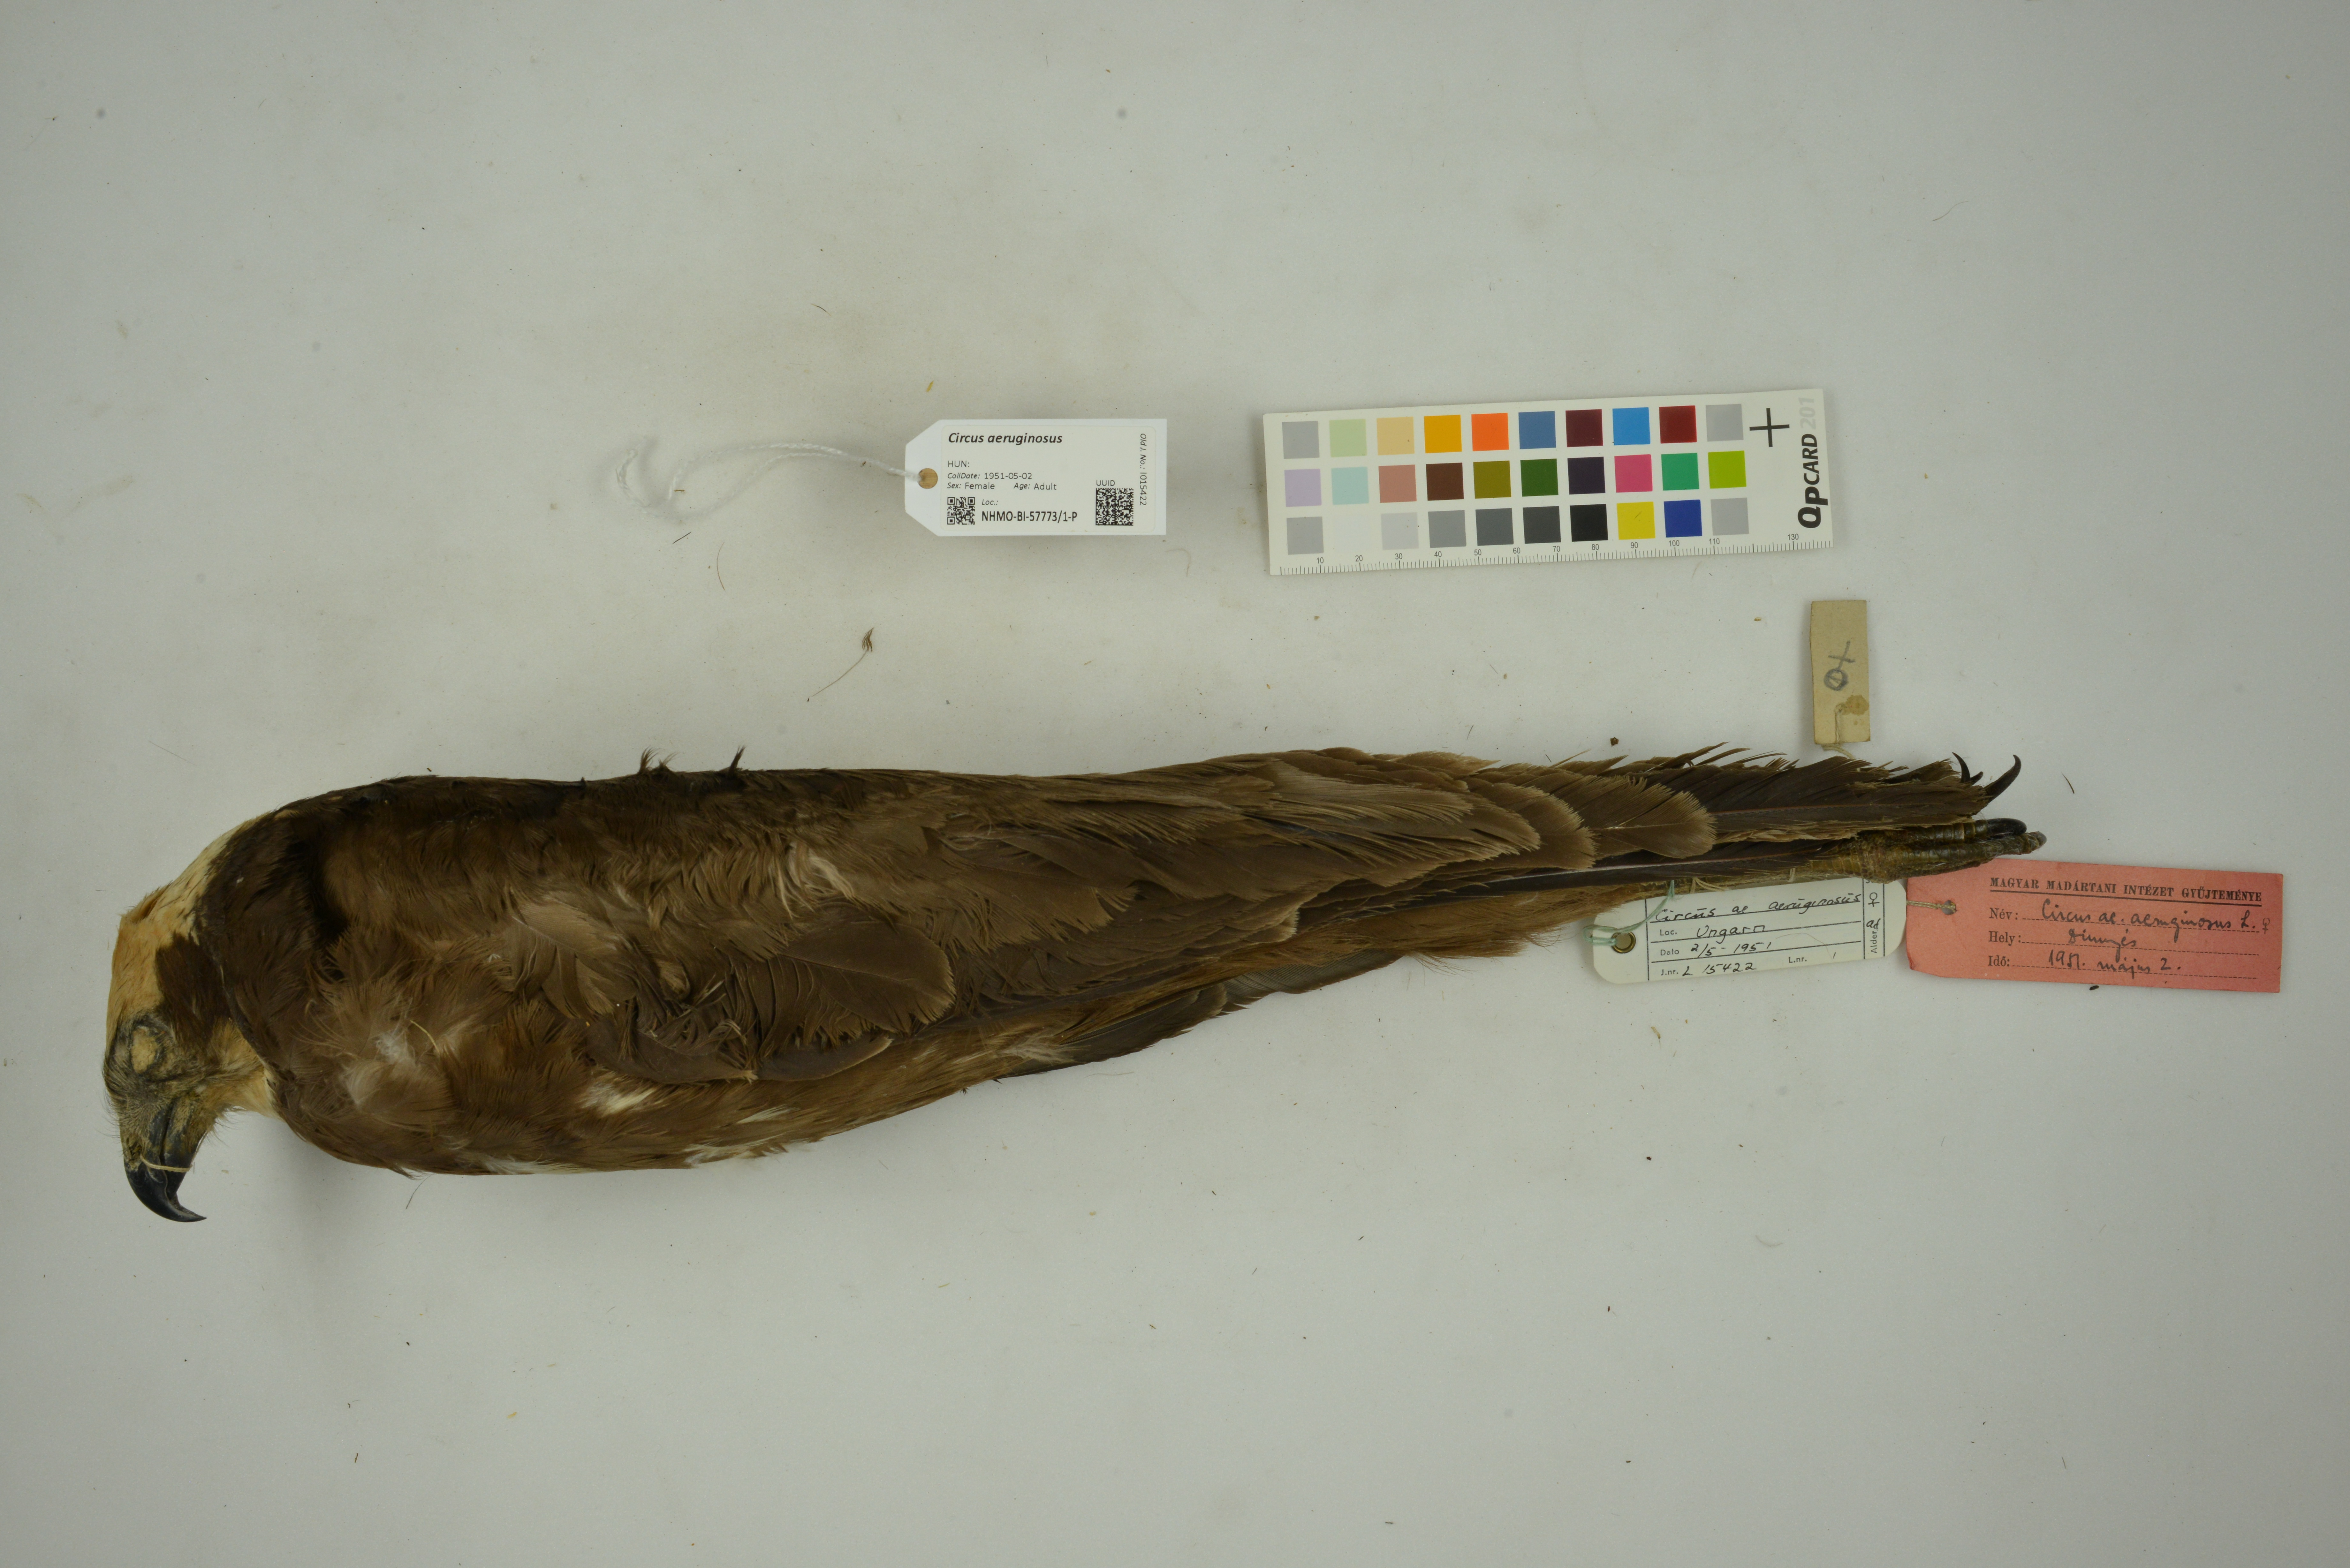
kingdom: Animalia
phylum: Chordata
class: Aves
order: Accipitriformes
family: Accipitridae
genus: Circus
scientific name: Circus aeruginosus
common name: Western marsh harrier
